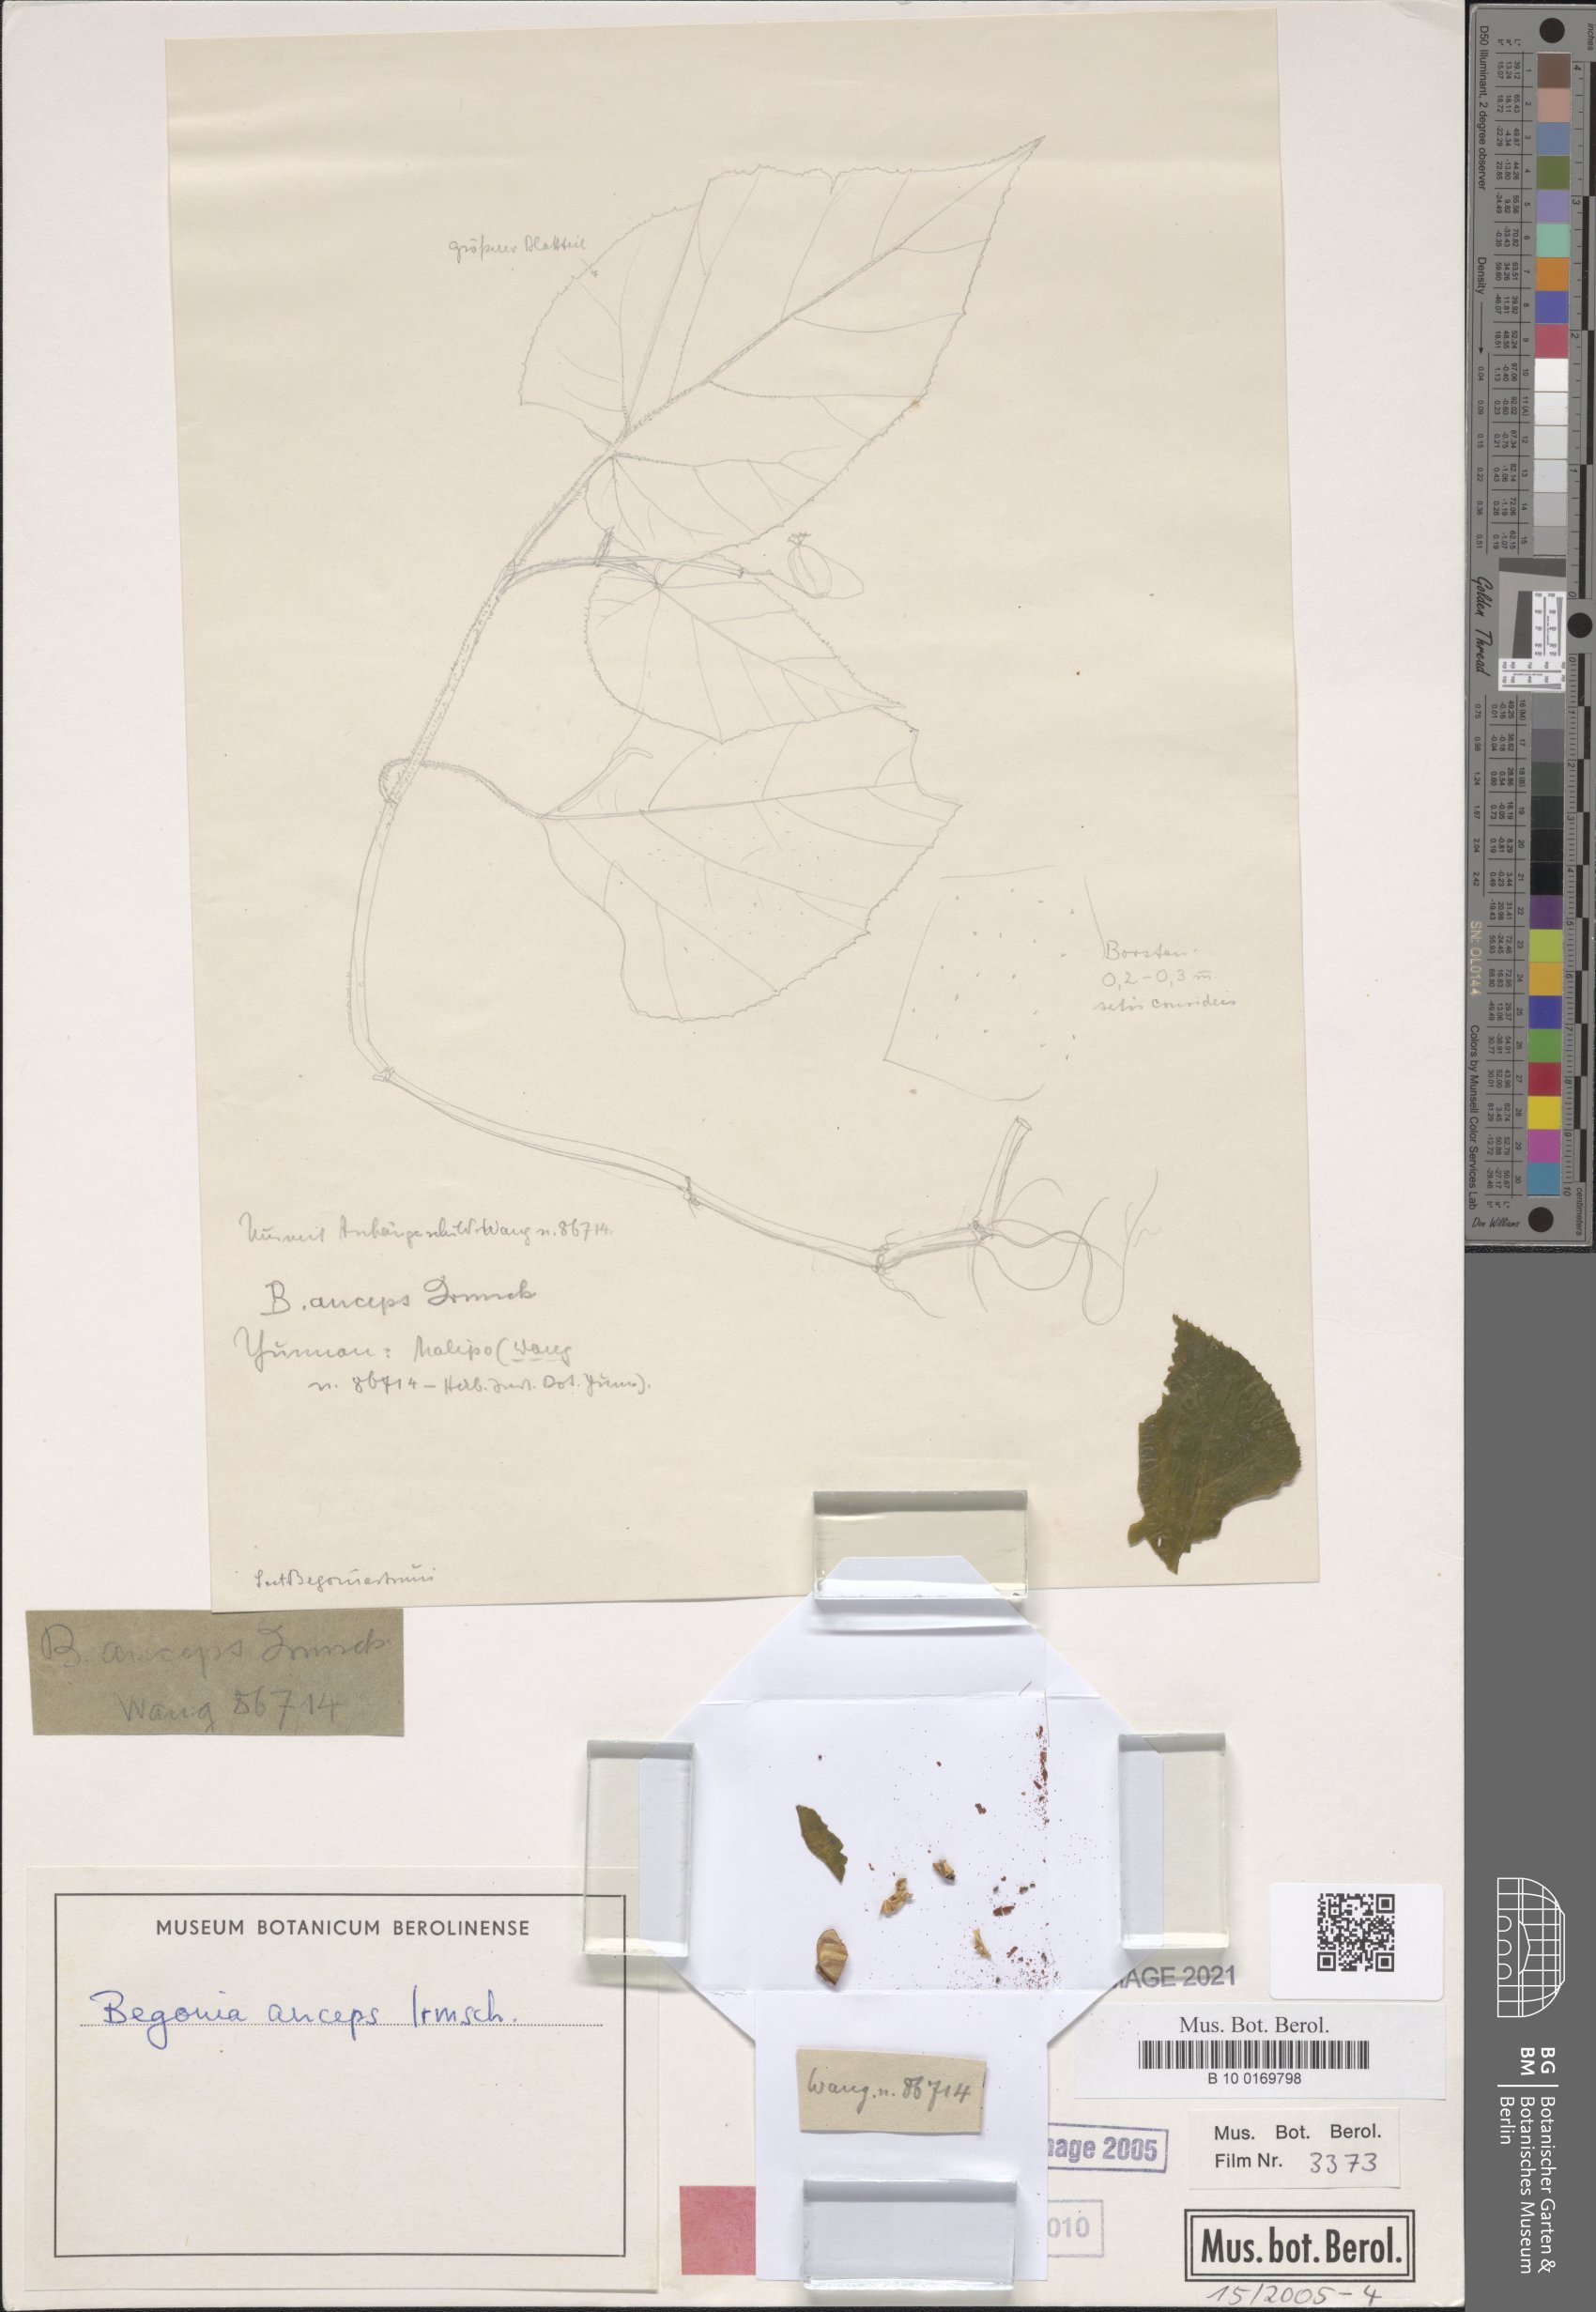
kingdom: Plantae
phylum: Tracheophyta
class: Magnoliopsida
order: Cucurbitales
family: Begoniaceae
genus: Begonia
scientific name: Begonia morifolia
